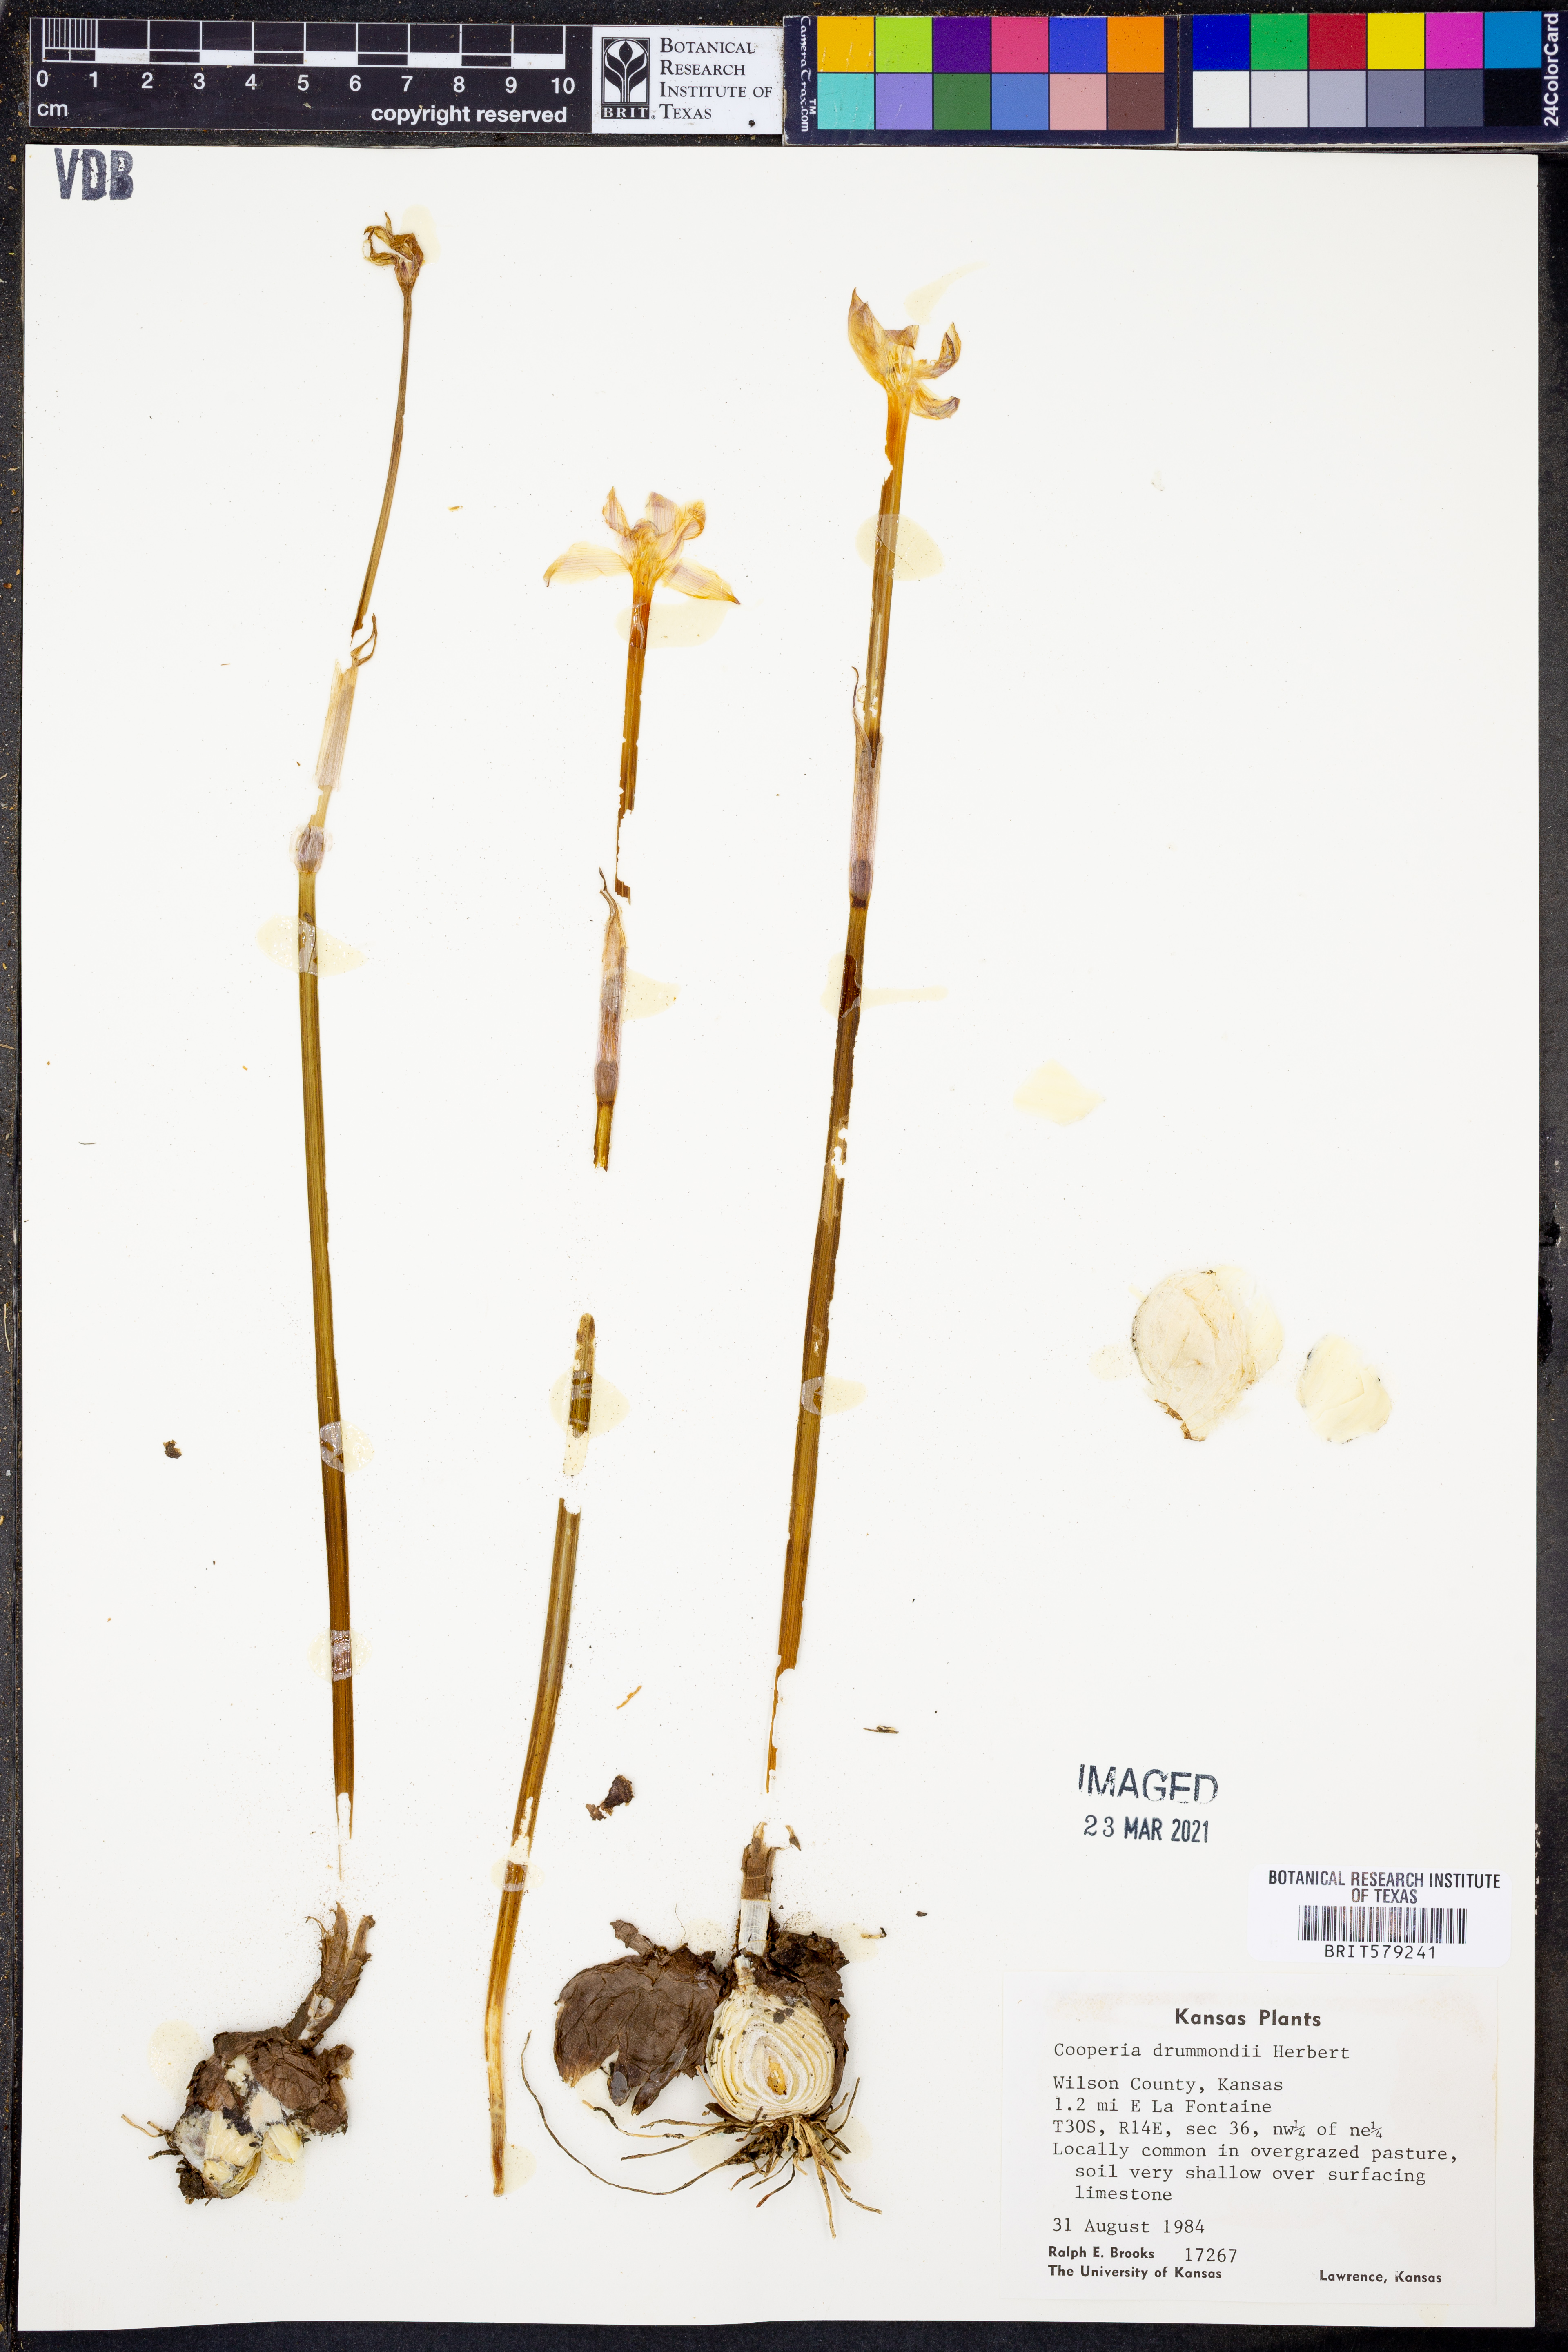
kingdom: Plantae
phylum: Tracheophyta
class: Liliopsida
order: Asparagales
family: Amaryllidaceae
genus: Zephyranthes
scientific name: Zephyranthes chlorosolen
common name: Evening rain-lily
